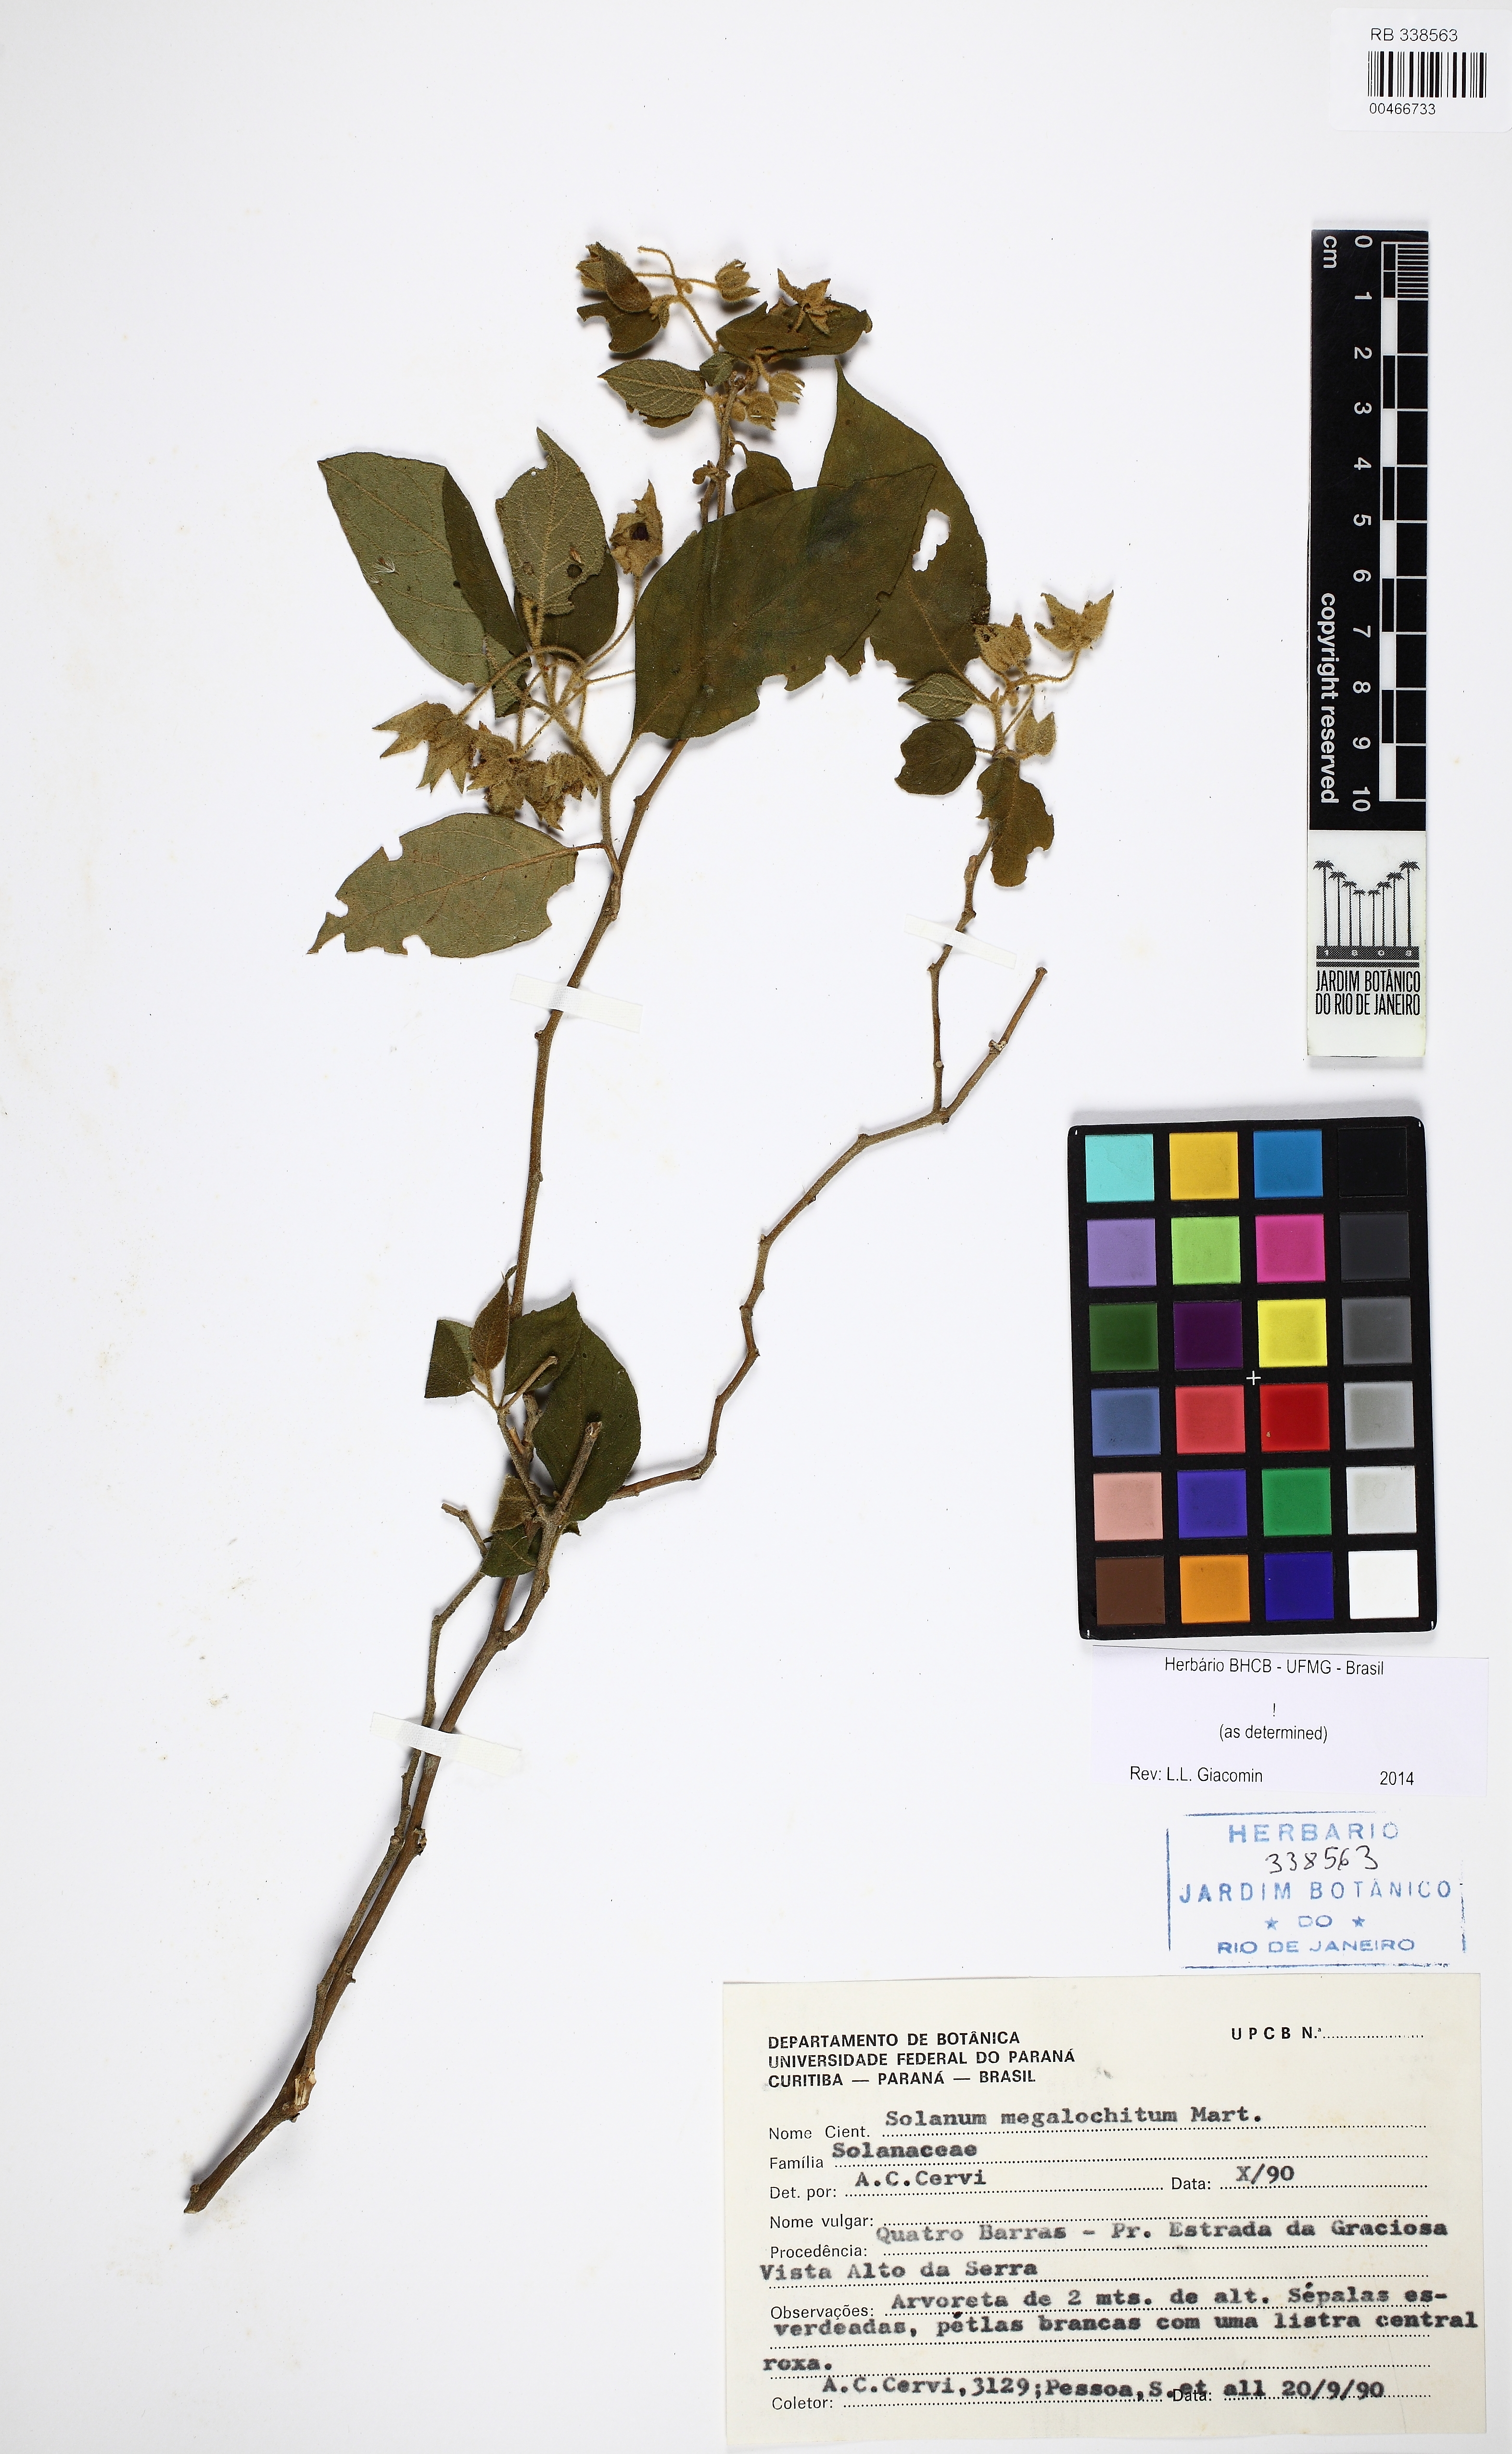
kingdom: Plantae
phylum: Tracheophyta
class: Magnoliopsida
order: Solanales
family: Solanaceae
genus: Solanum
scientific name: Solanum megalochiton
